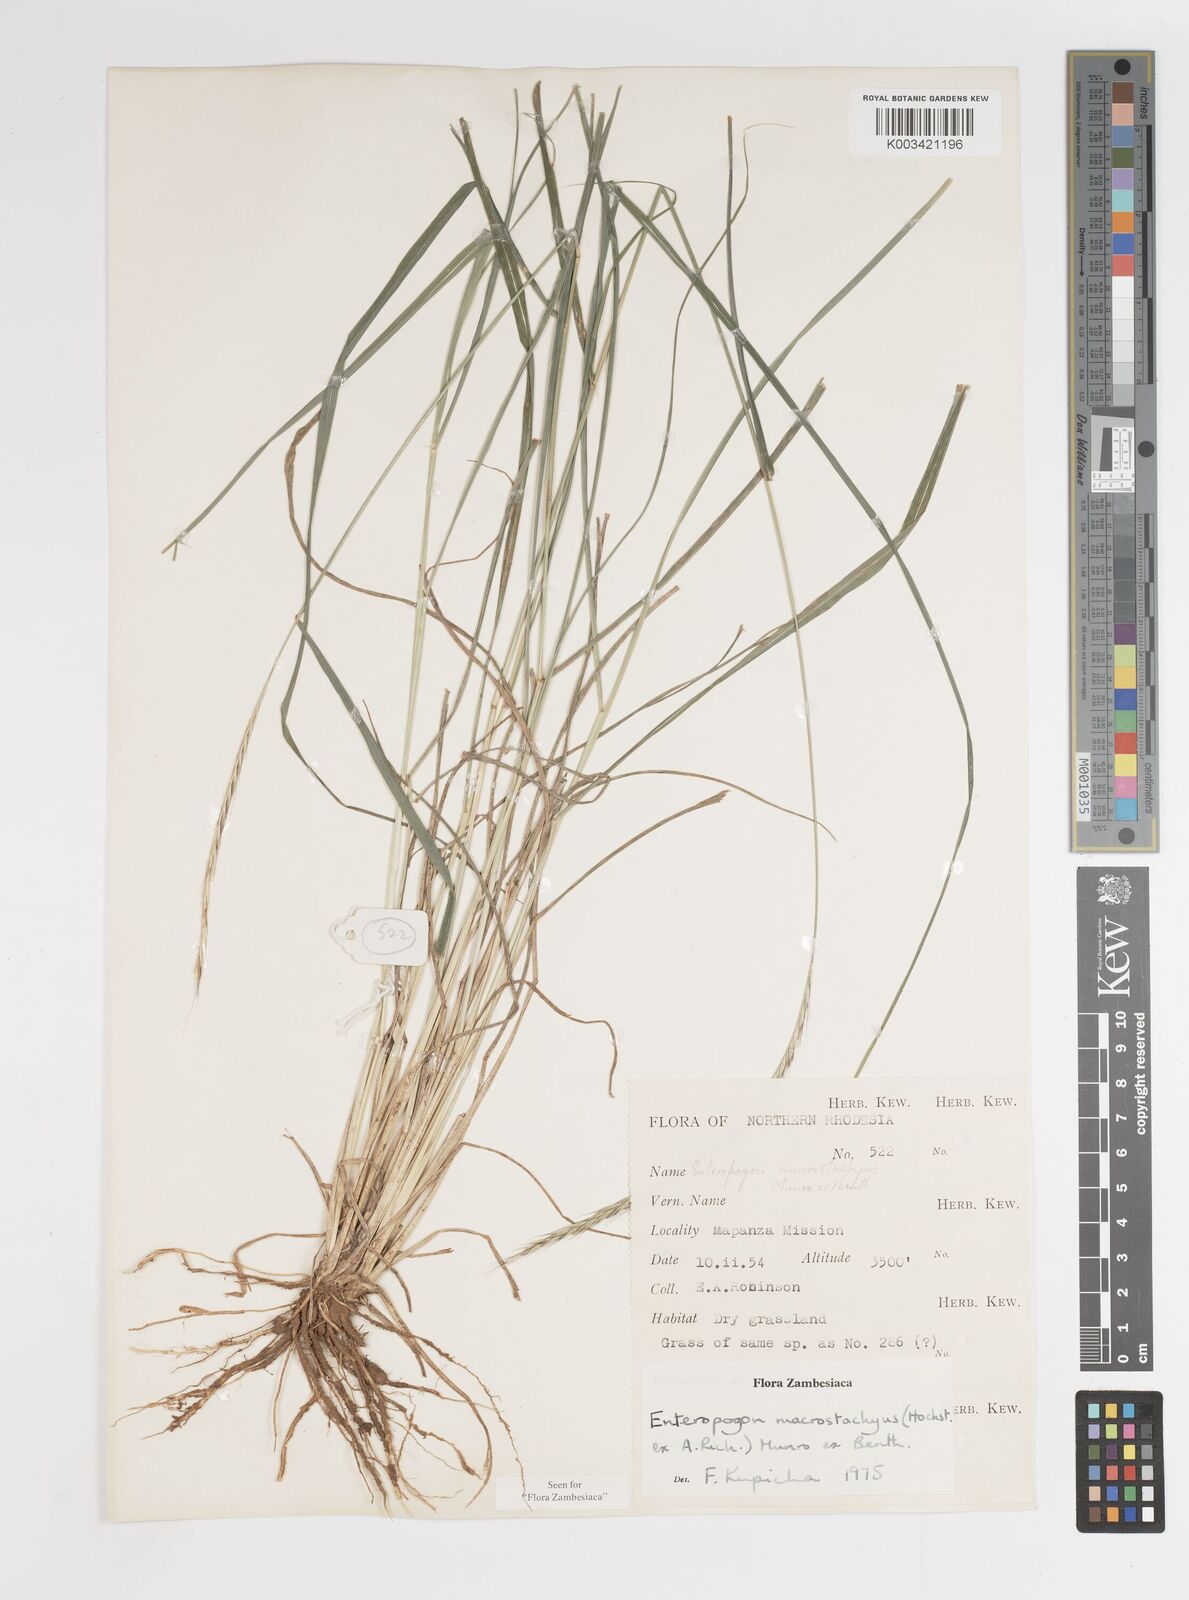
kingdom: Plantae
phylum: Tracheophyta
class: Liliopsida
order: Poales
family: Poaceae
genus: Enteropogon
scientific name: Enteropogon macrostachyus
